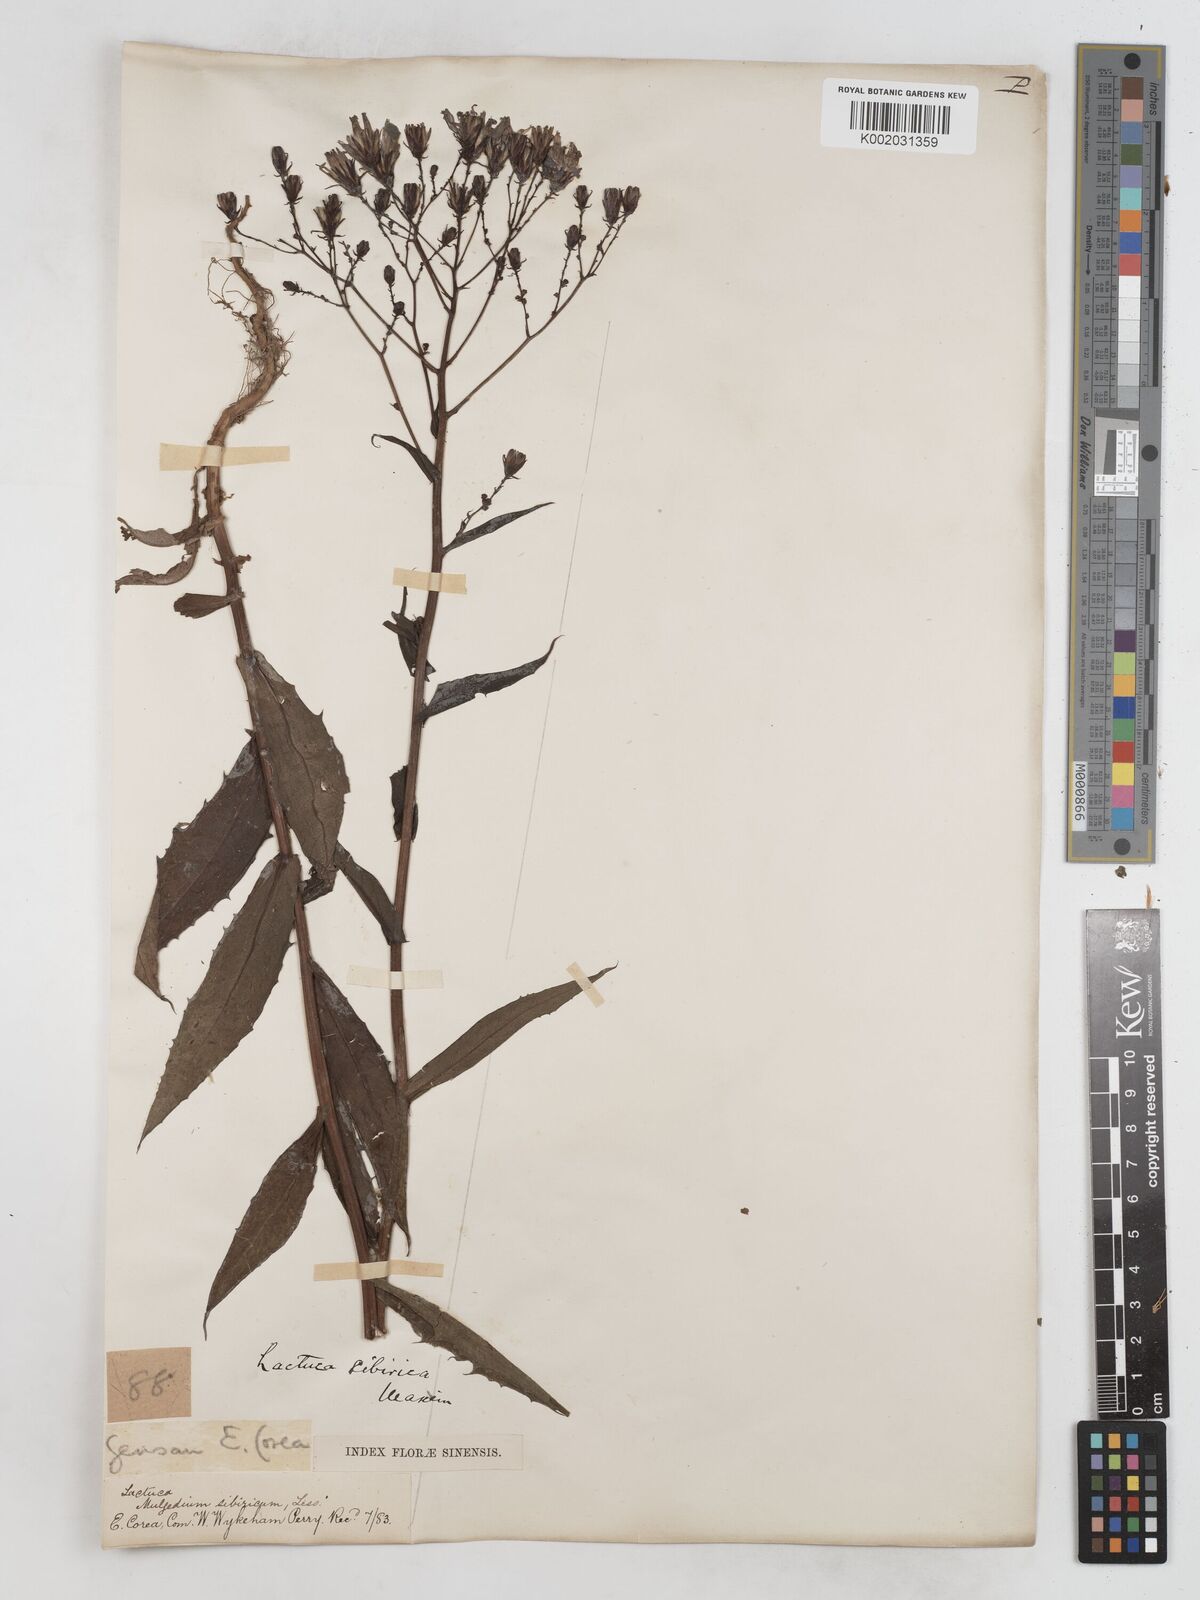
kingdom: Plantae
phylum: Tracheophyta
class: Magnoliopsida
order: Asterales
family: Asteraceae
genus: Lactuca
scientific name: Lactuca sibirica
